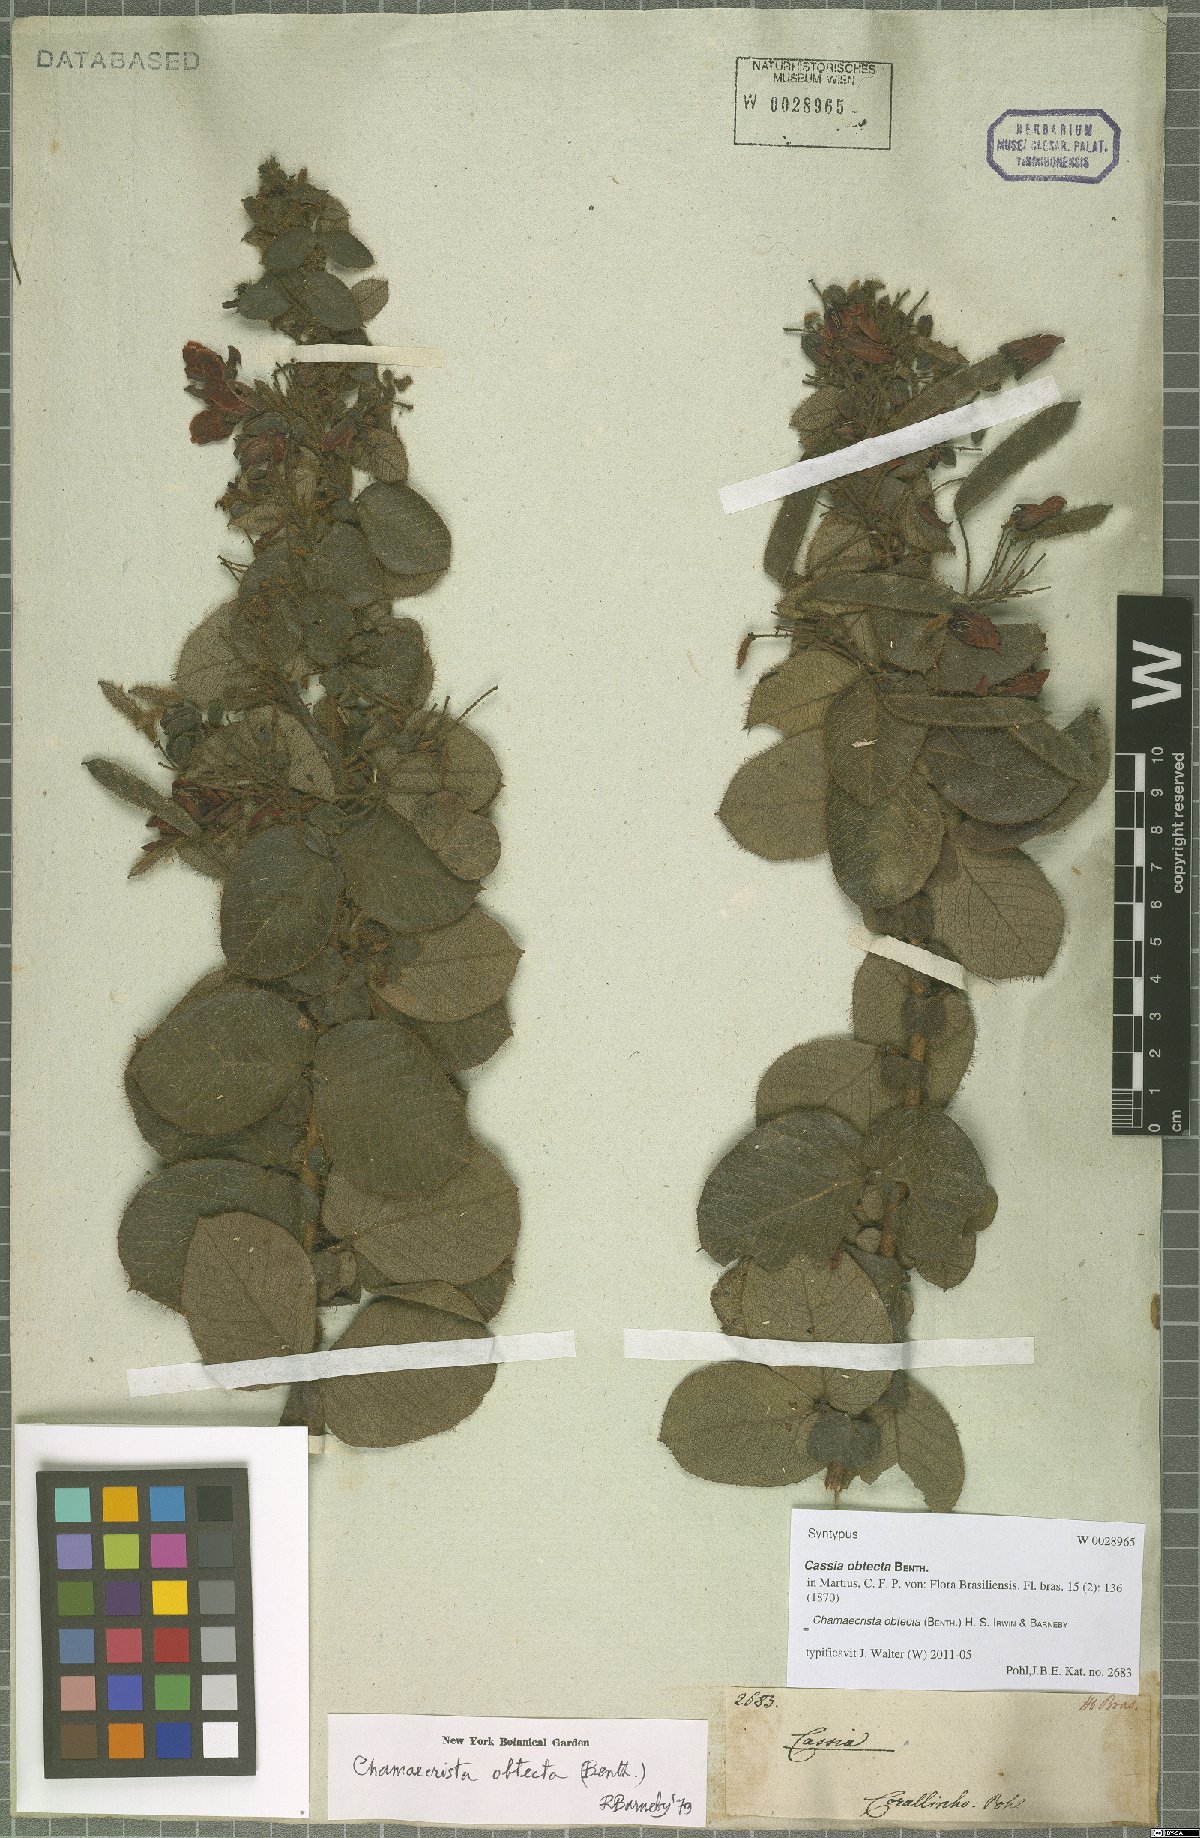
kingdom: Plantae
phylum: Tracheophyta
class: Magnoliopsida
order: Fabales
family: Fabaceae
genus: Chamaecrista
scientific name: Chamaecrista obtecta
